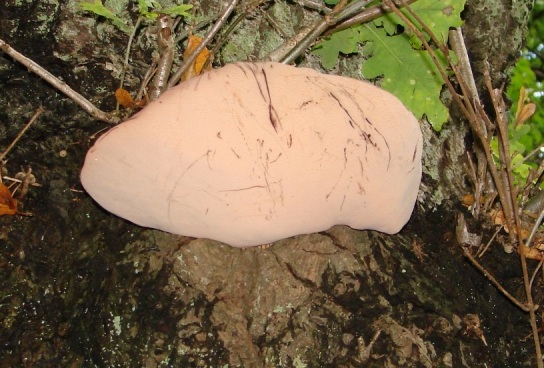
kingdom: Fungi
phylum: Basidiomycota
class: Agaricomycetes
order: Agaricales
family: Fistulinaceae
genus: Fistulina
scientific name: Fistulina hepatica
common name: oksetunge
